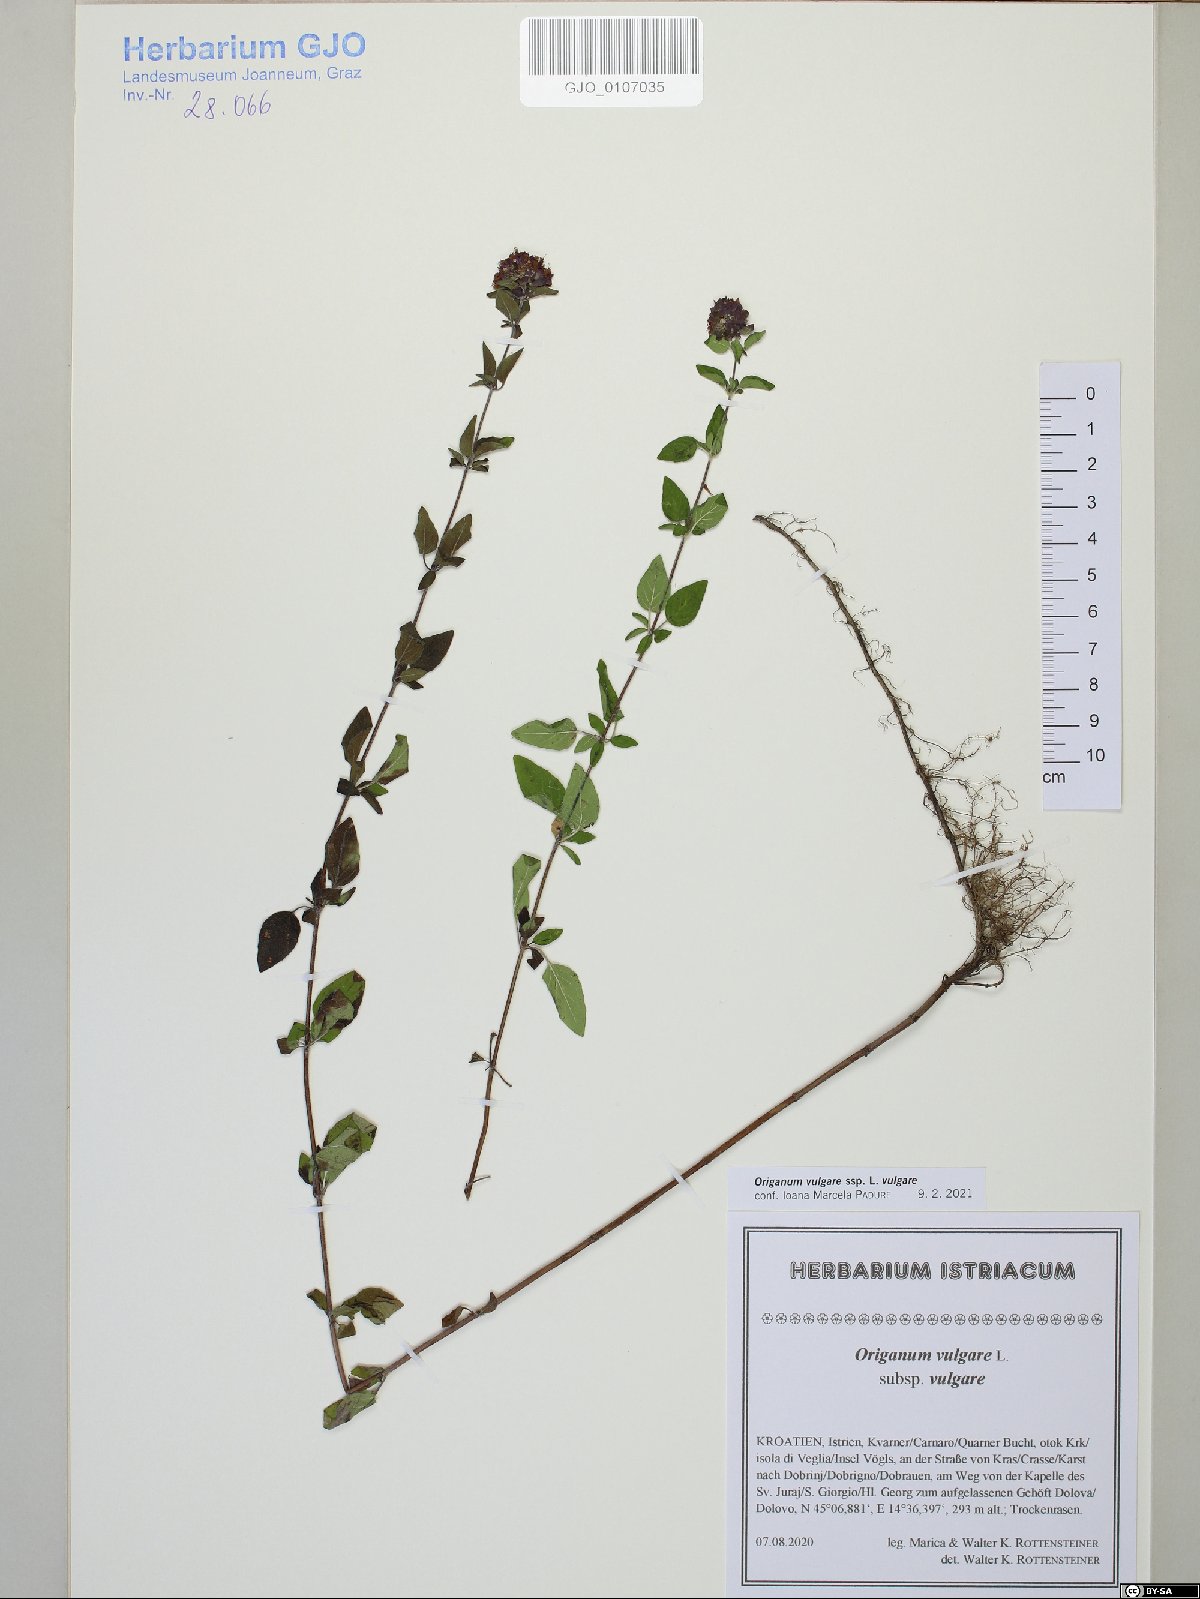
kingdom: Plantae
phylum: Tracheophyta
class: Magnoliopsida
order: Lamiales
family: Lamiaceae
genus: Origanum
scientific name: Origanum vulgare
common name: Wild marjoram
